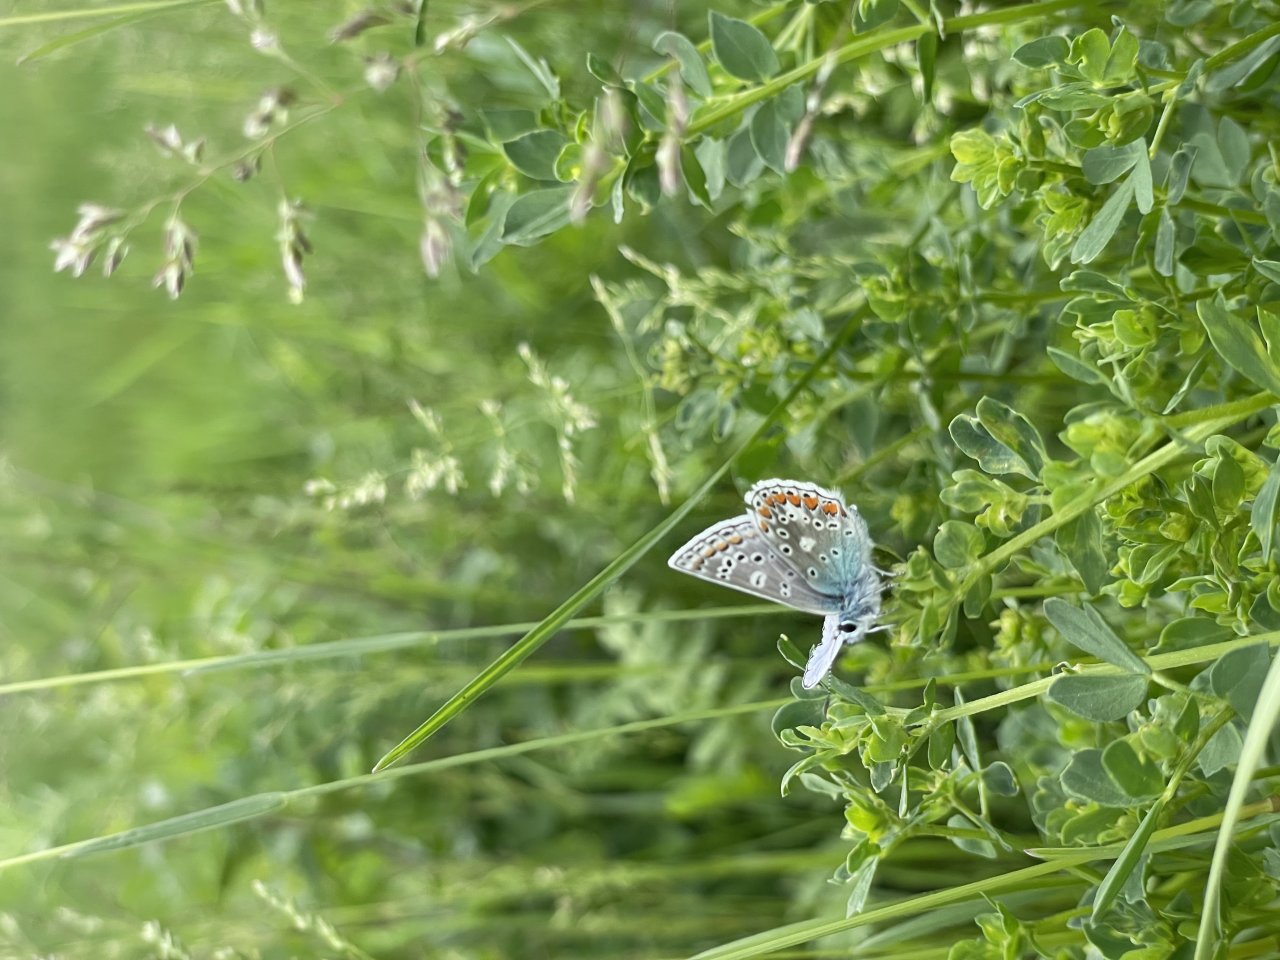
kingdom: Animalia
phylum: Arthropoda
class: Insecta
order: Lepidoptera
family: Lycaenidae
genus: Polyommatus
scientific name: Polyommatus icarus
